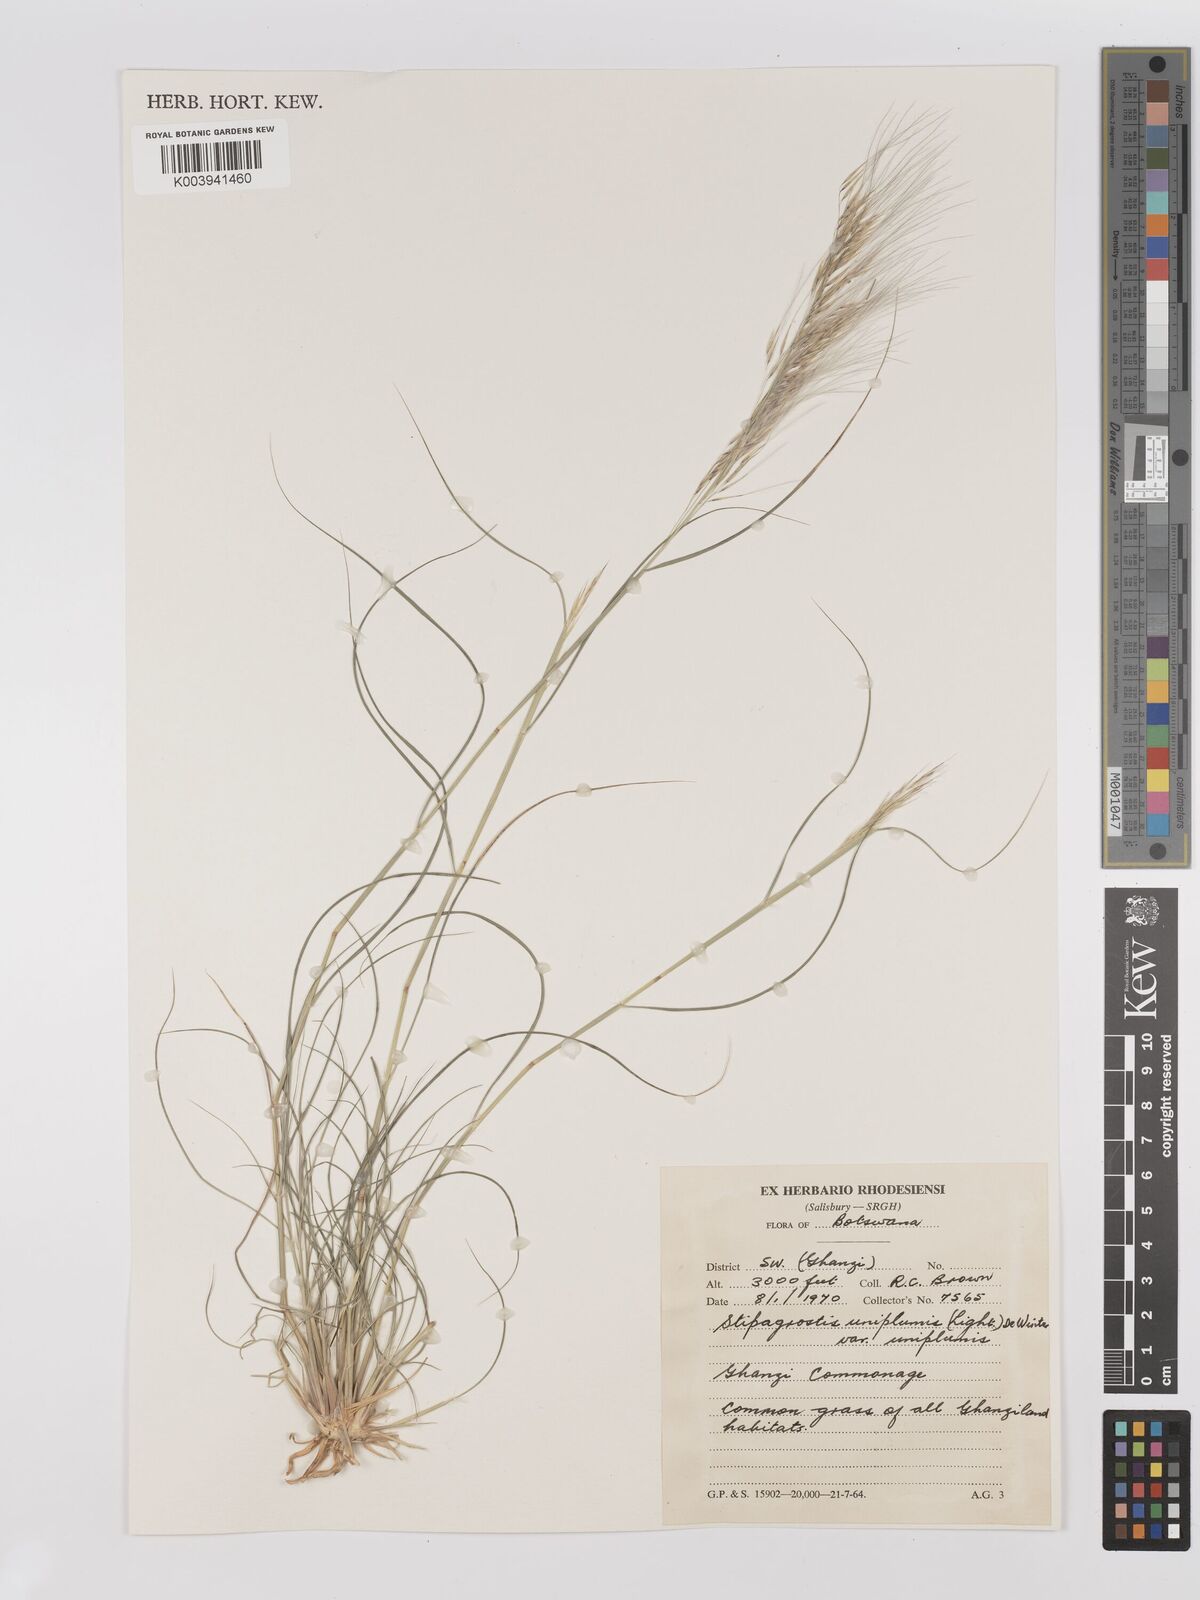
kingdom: Plantae
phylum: Tracheophyta
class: Liliopsida
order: Poales
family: Poaceae
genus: Stipagrostis
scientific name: Stipagrostis uniplumis
